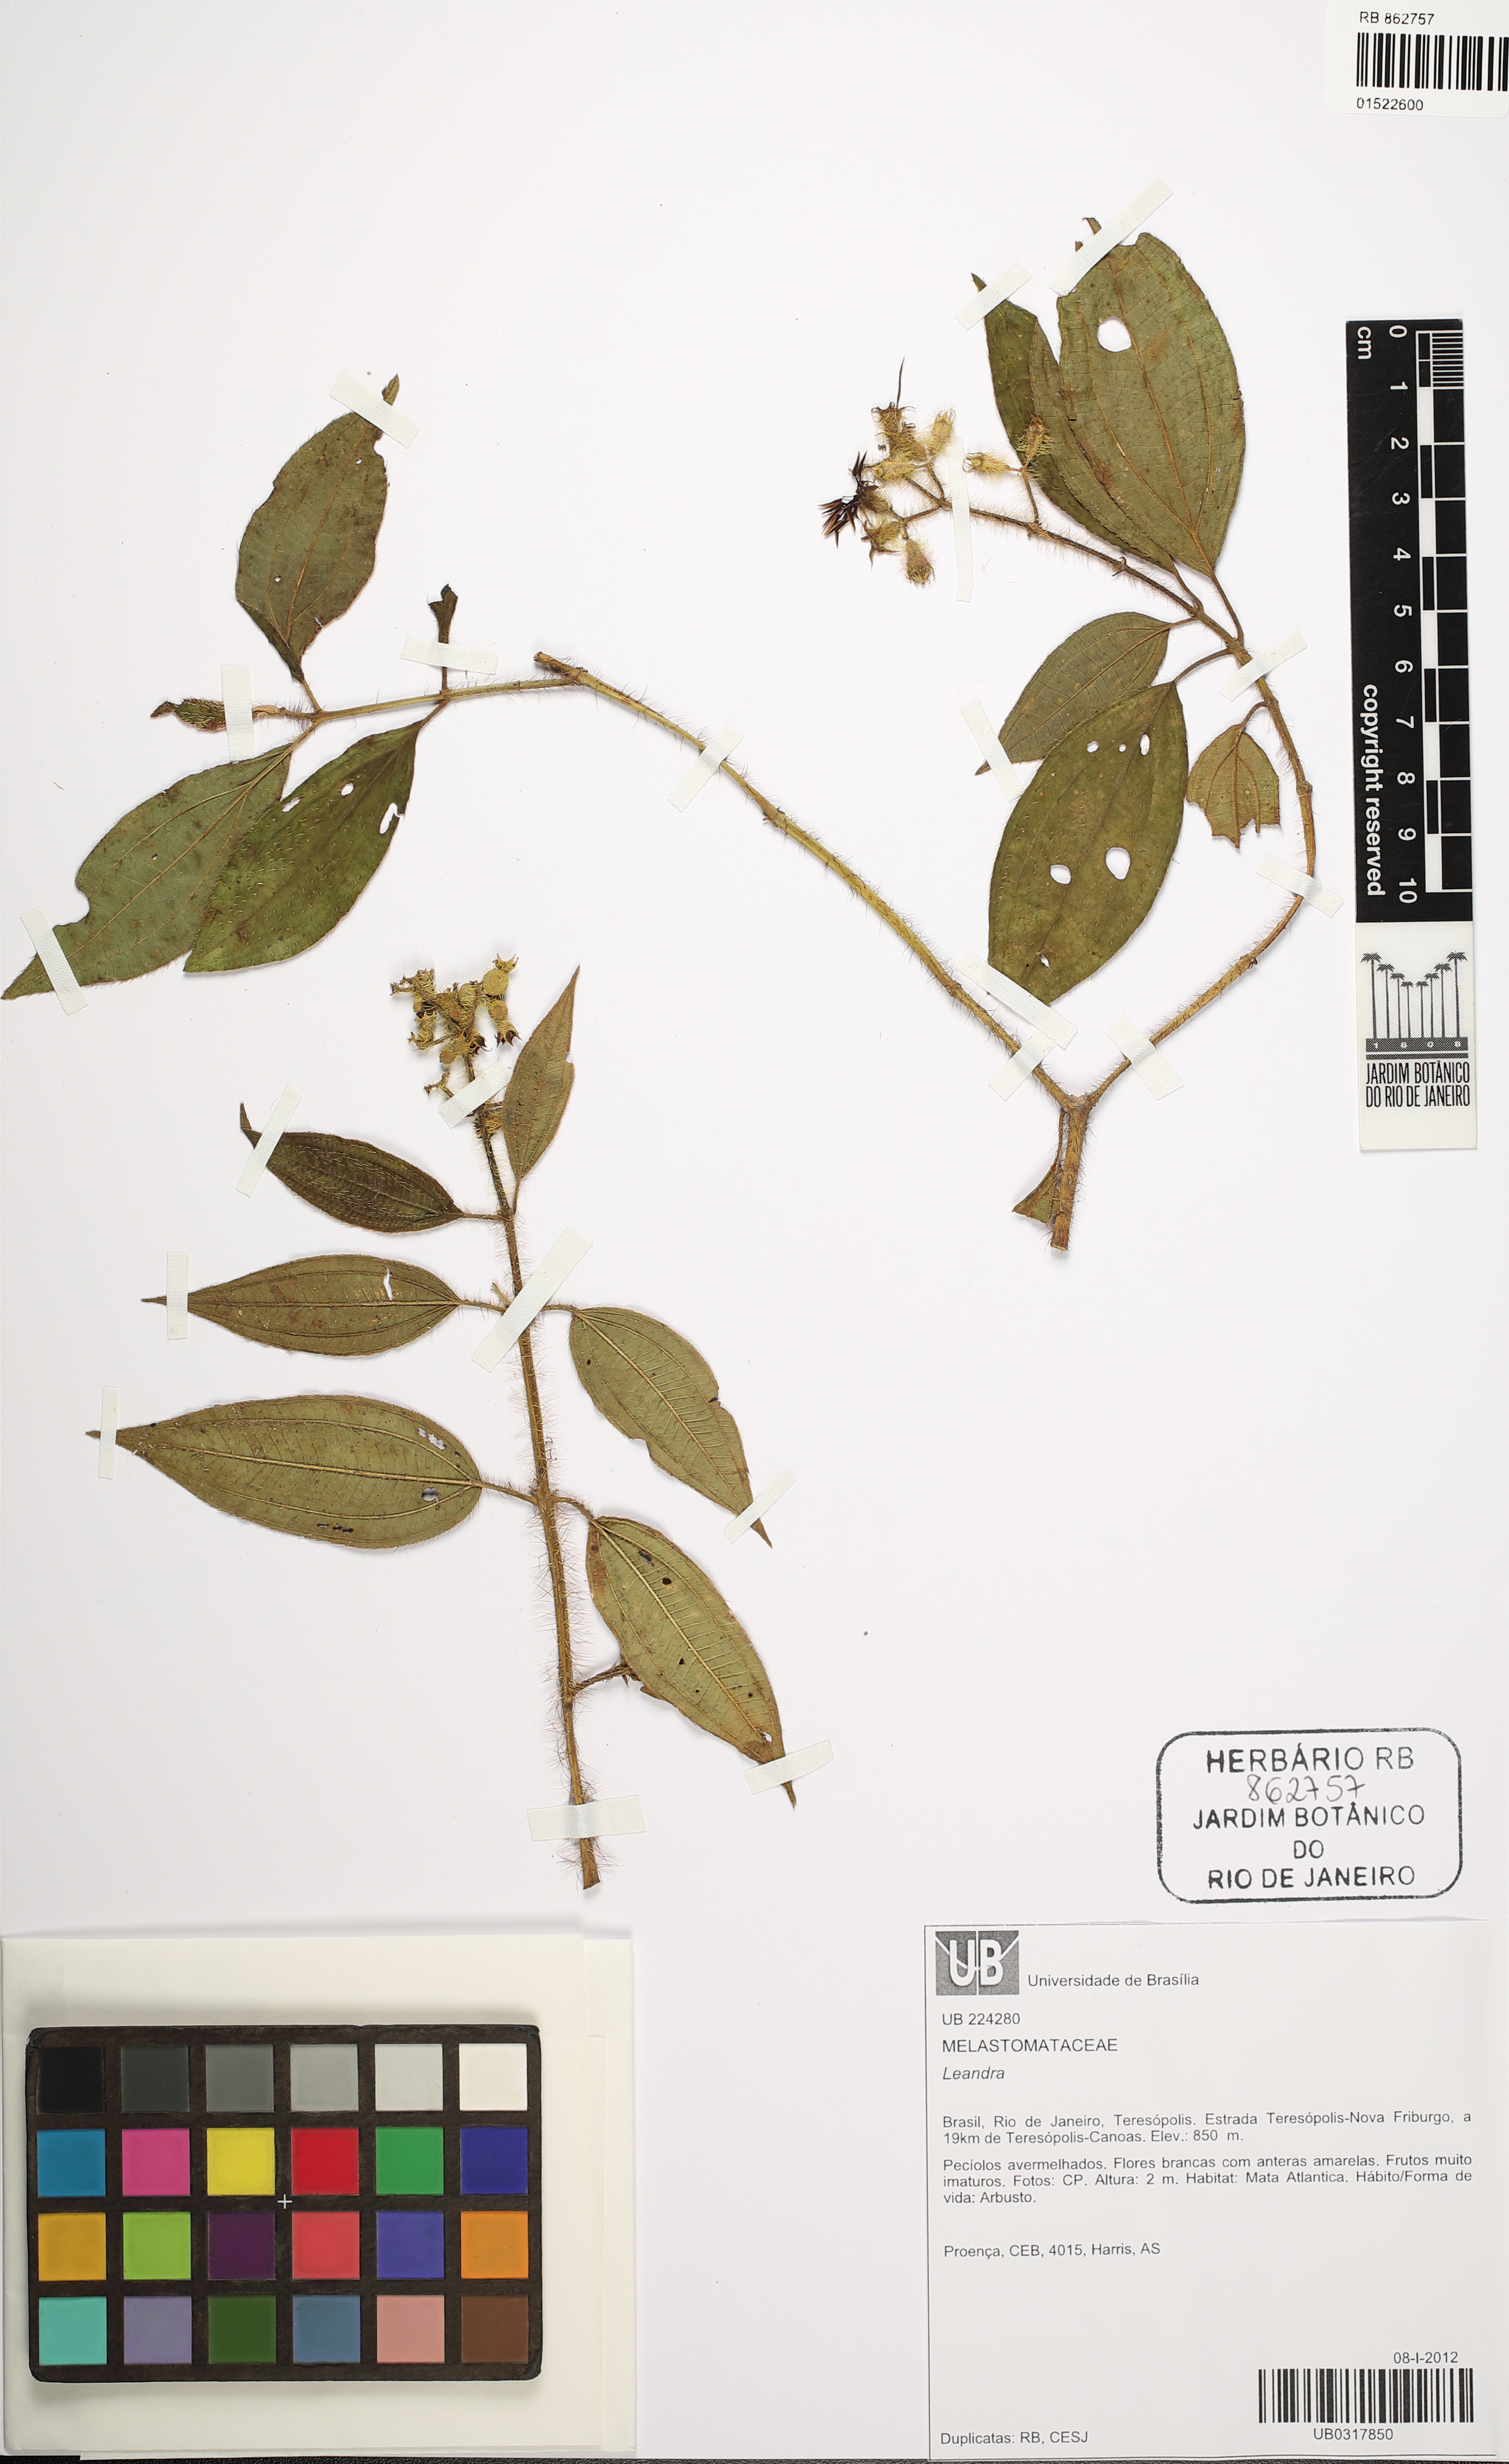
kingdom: Plantae
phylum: Tracheophyta
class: Magnoliopsida
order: Myrtales
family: Melastomataceae
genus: Miconia
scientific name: Miconia
